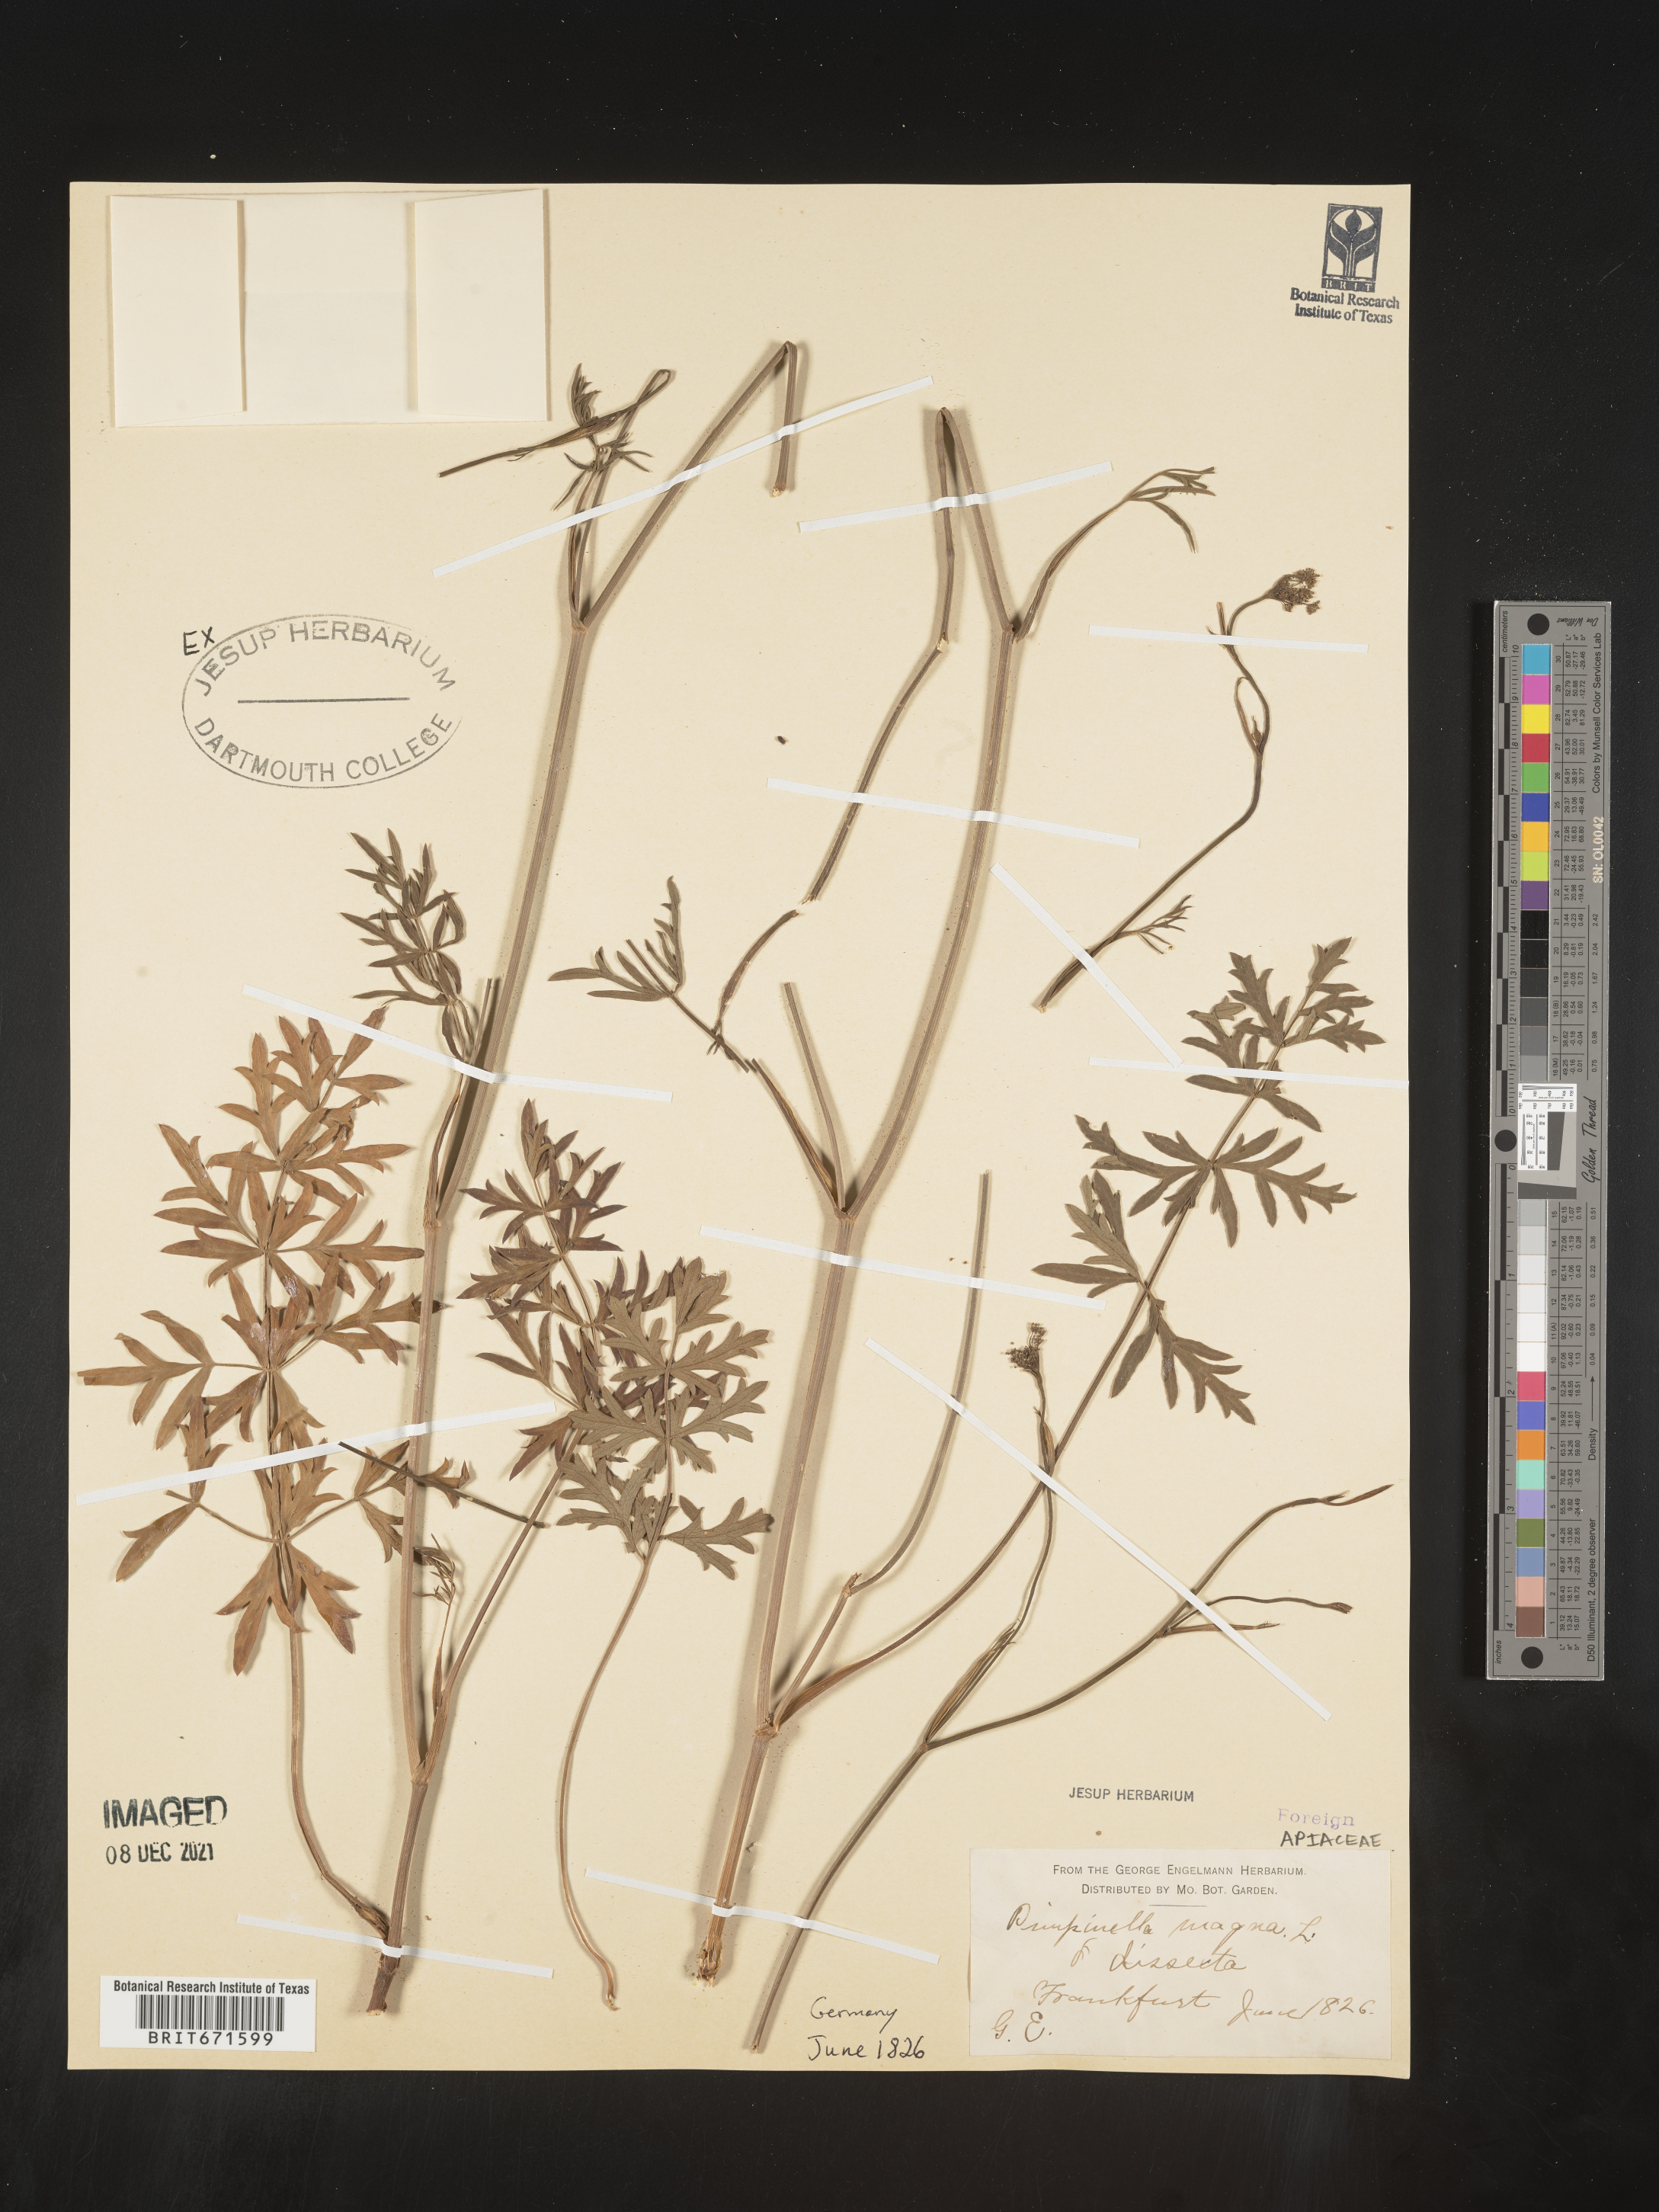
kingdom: Plantae
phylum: Tracheophyta
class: Magnoliopsida
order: Apiales
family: Apiaceae
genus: Pimpinella
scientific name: Pimpinella
